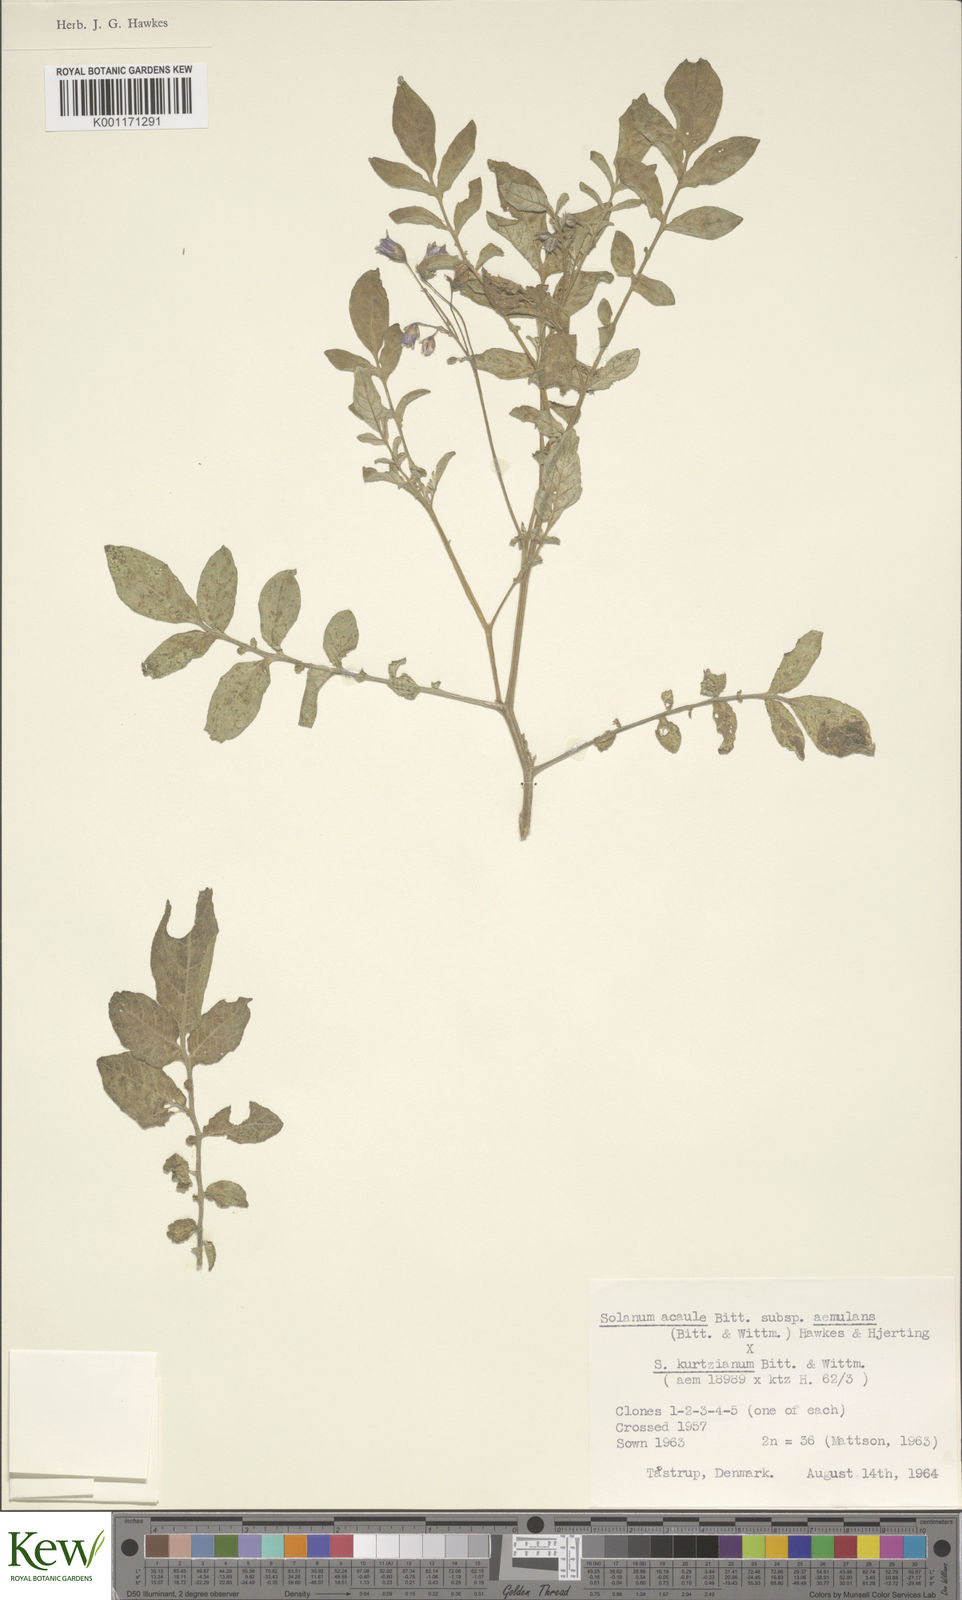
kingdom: Plantae
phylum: Tracheophyta
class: Magnoliopsida
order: Solanales
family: Solanaceae
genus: Solanum
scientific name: Solanum aemulans
